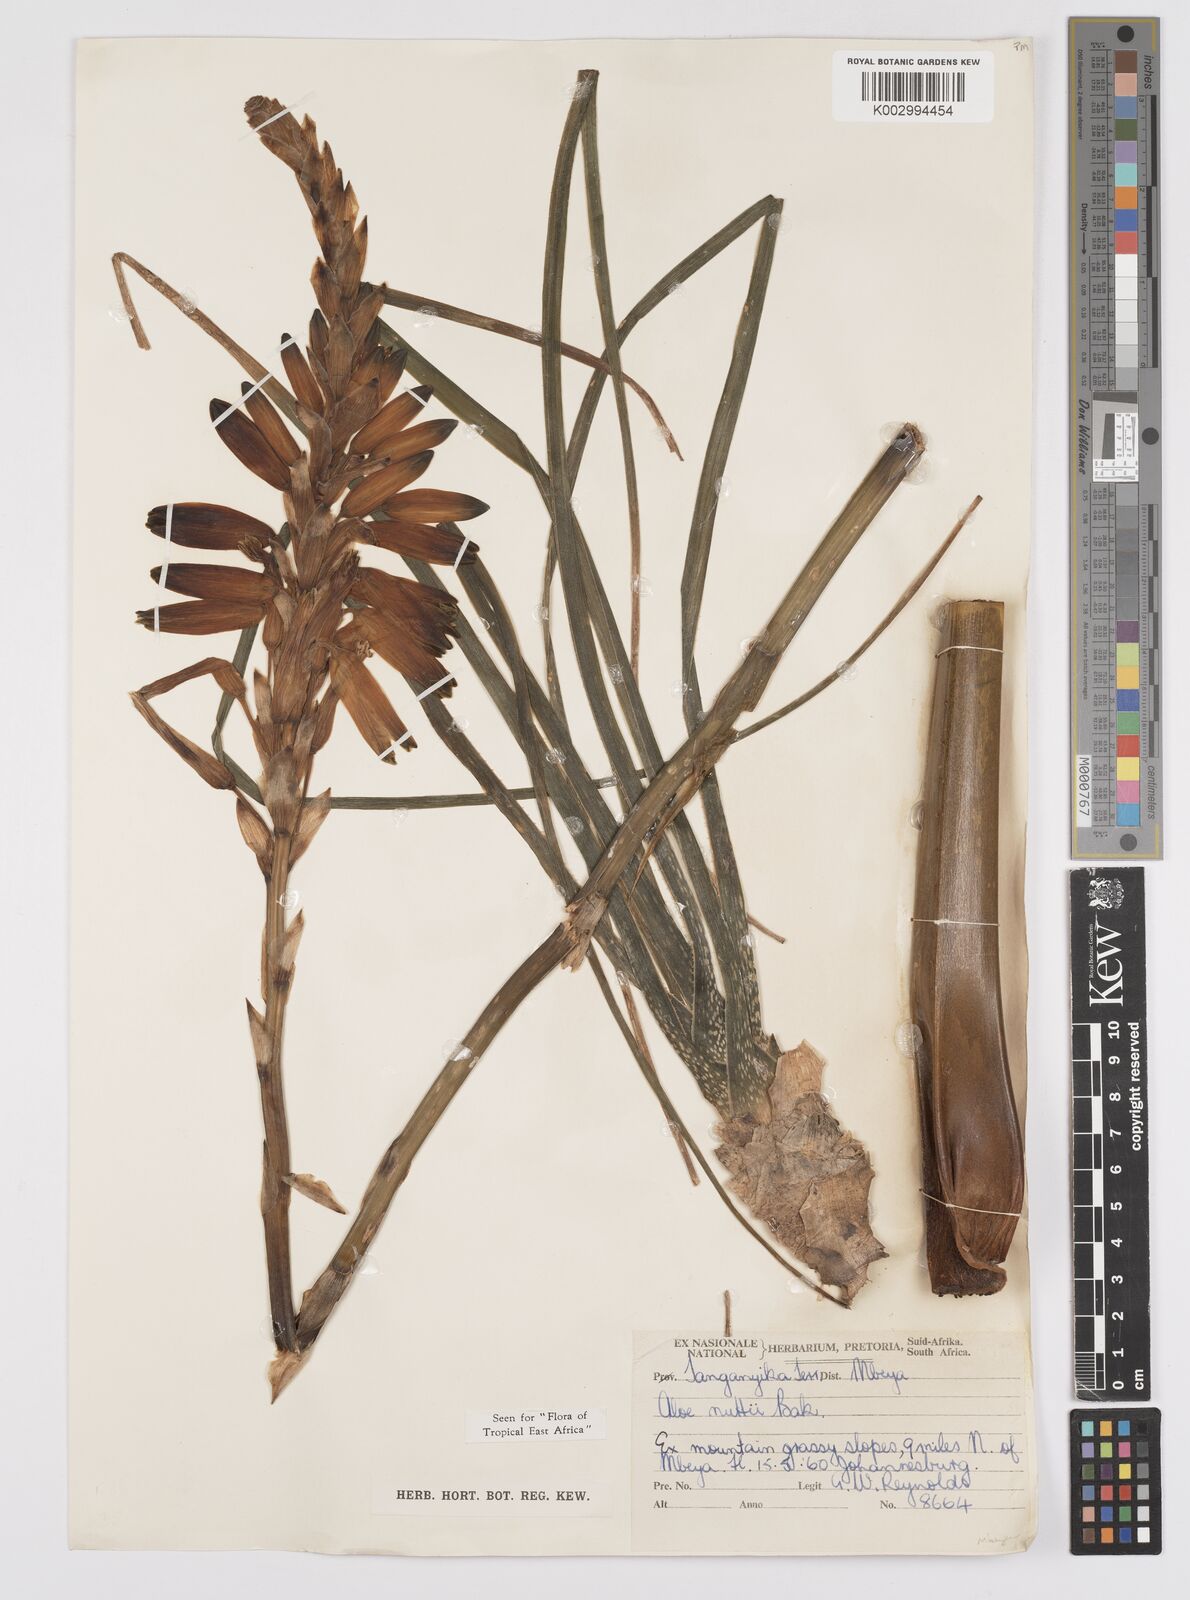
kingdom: Plantae
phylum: Tracheophyta
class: Liliopsida
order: Asparagales
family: Asphodelaceae
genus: Aloe
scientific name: Aloe nuttii
